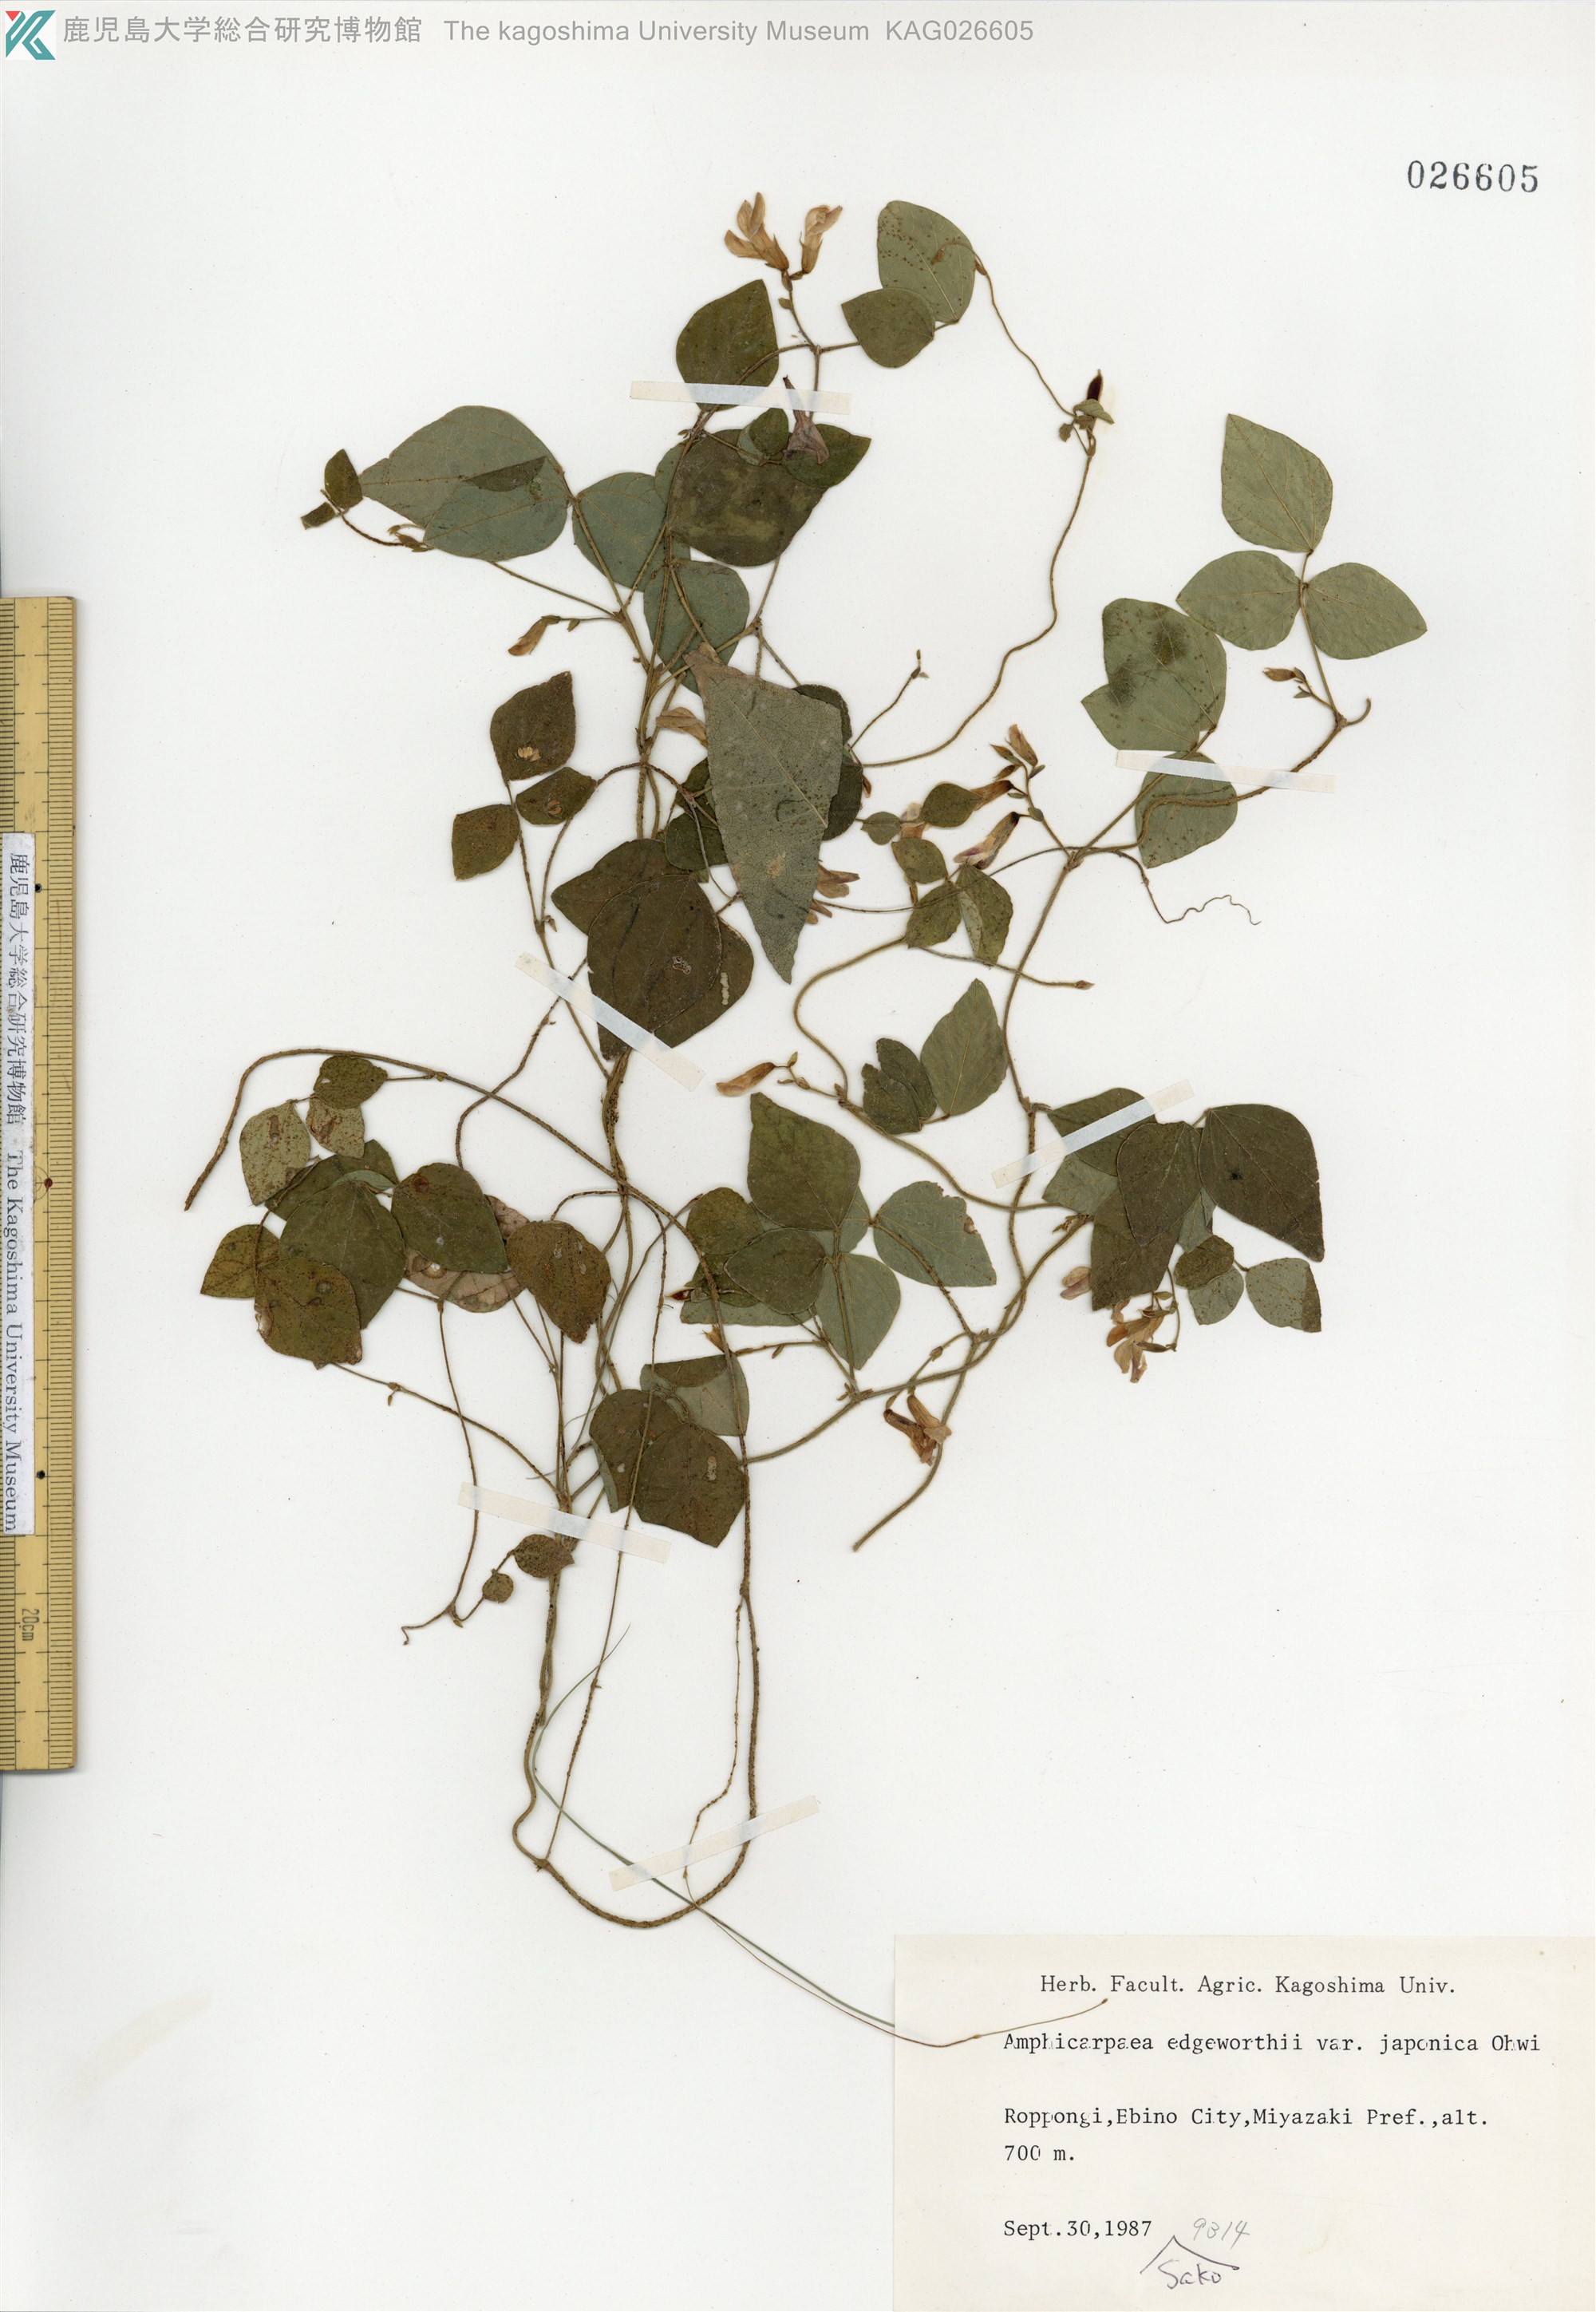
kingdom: Plantae
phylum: Tracheophyta
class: Magnoliopsida
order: Fabales
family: Fabaceae
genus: Amphicarpaea
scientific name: Amphicarpaea edgeworthii
